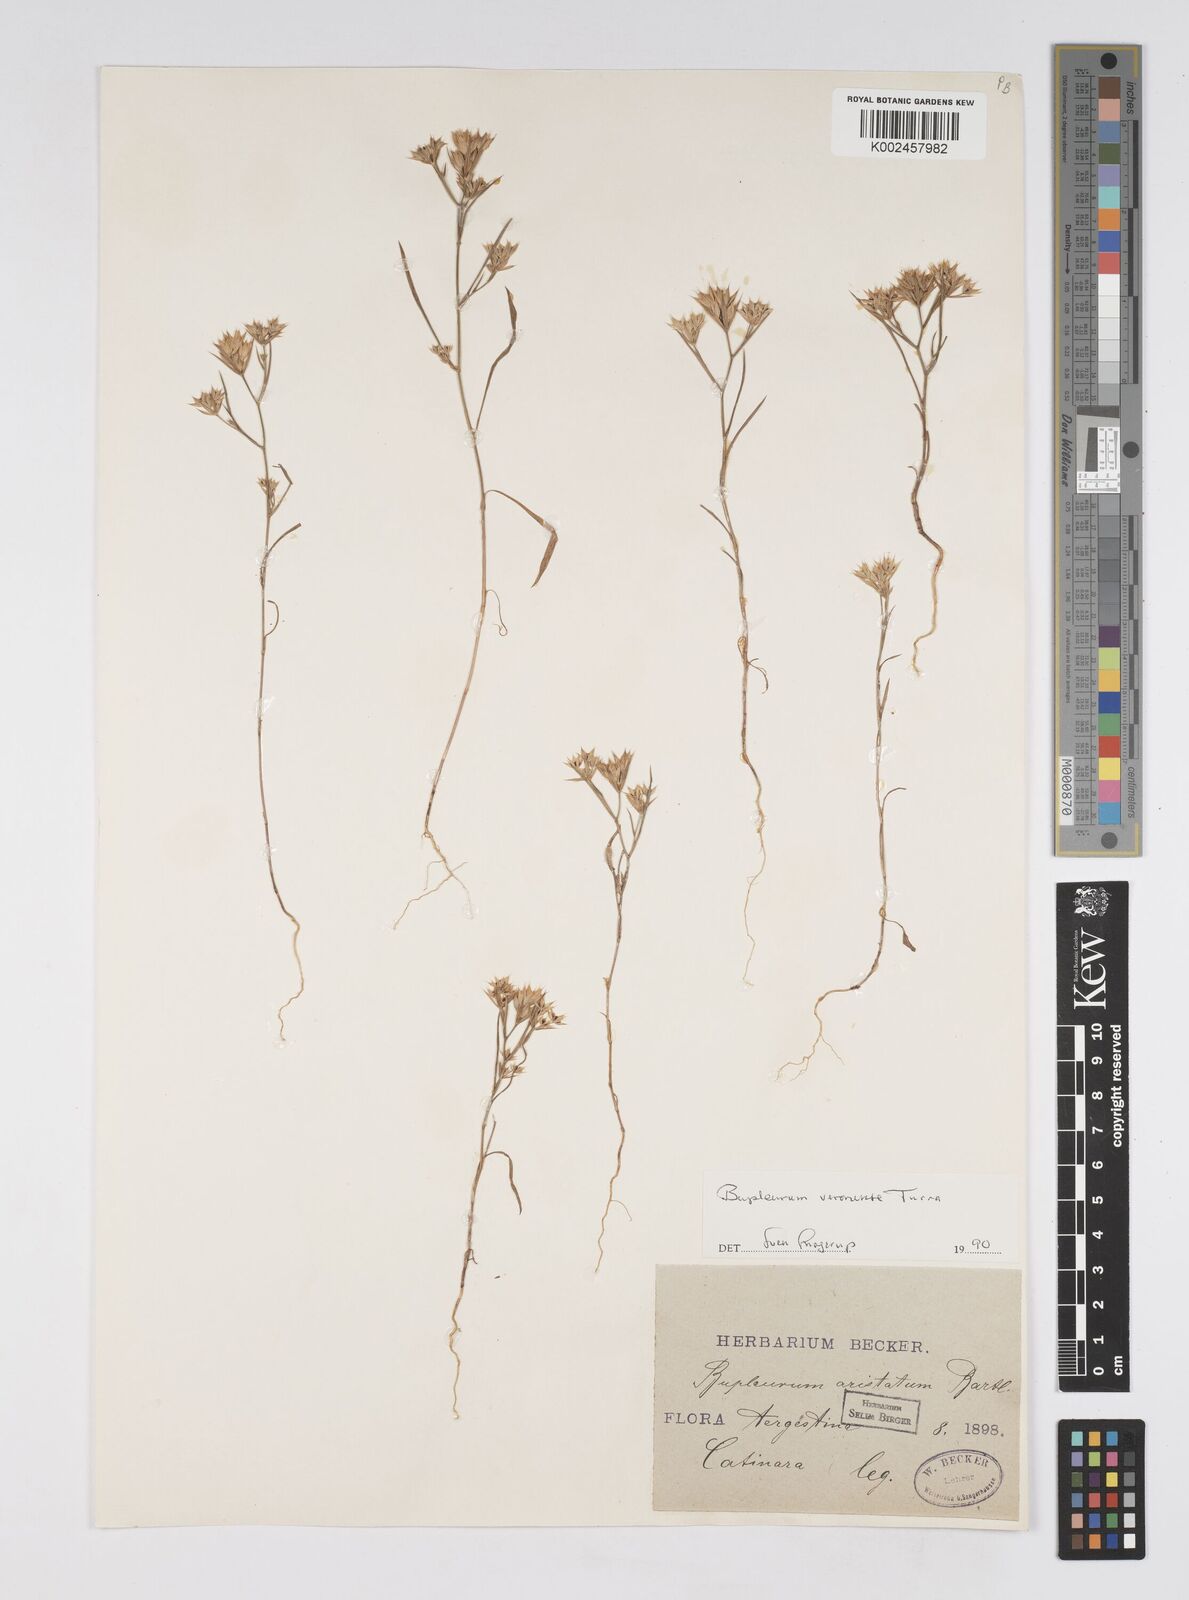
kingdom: Plantae
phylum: Tracheophyta
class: Magnoliopsida
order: Apiales
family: Apiaceae
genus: Bupleurum
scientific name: Bupleurum glumaceum
